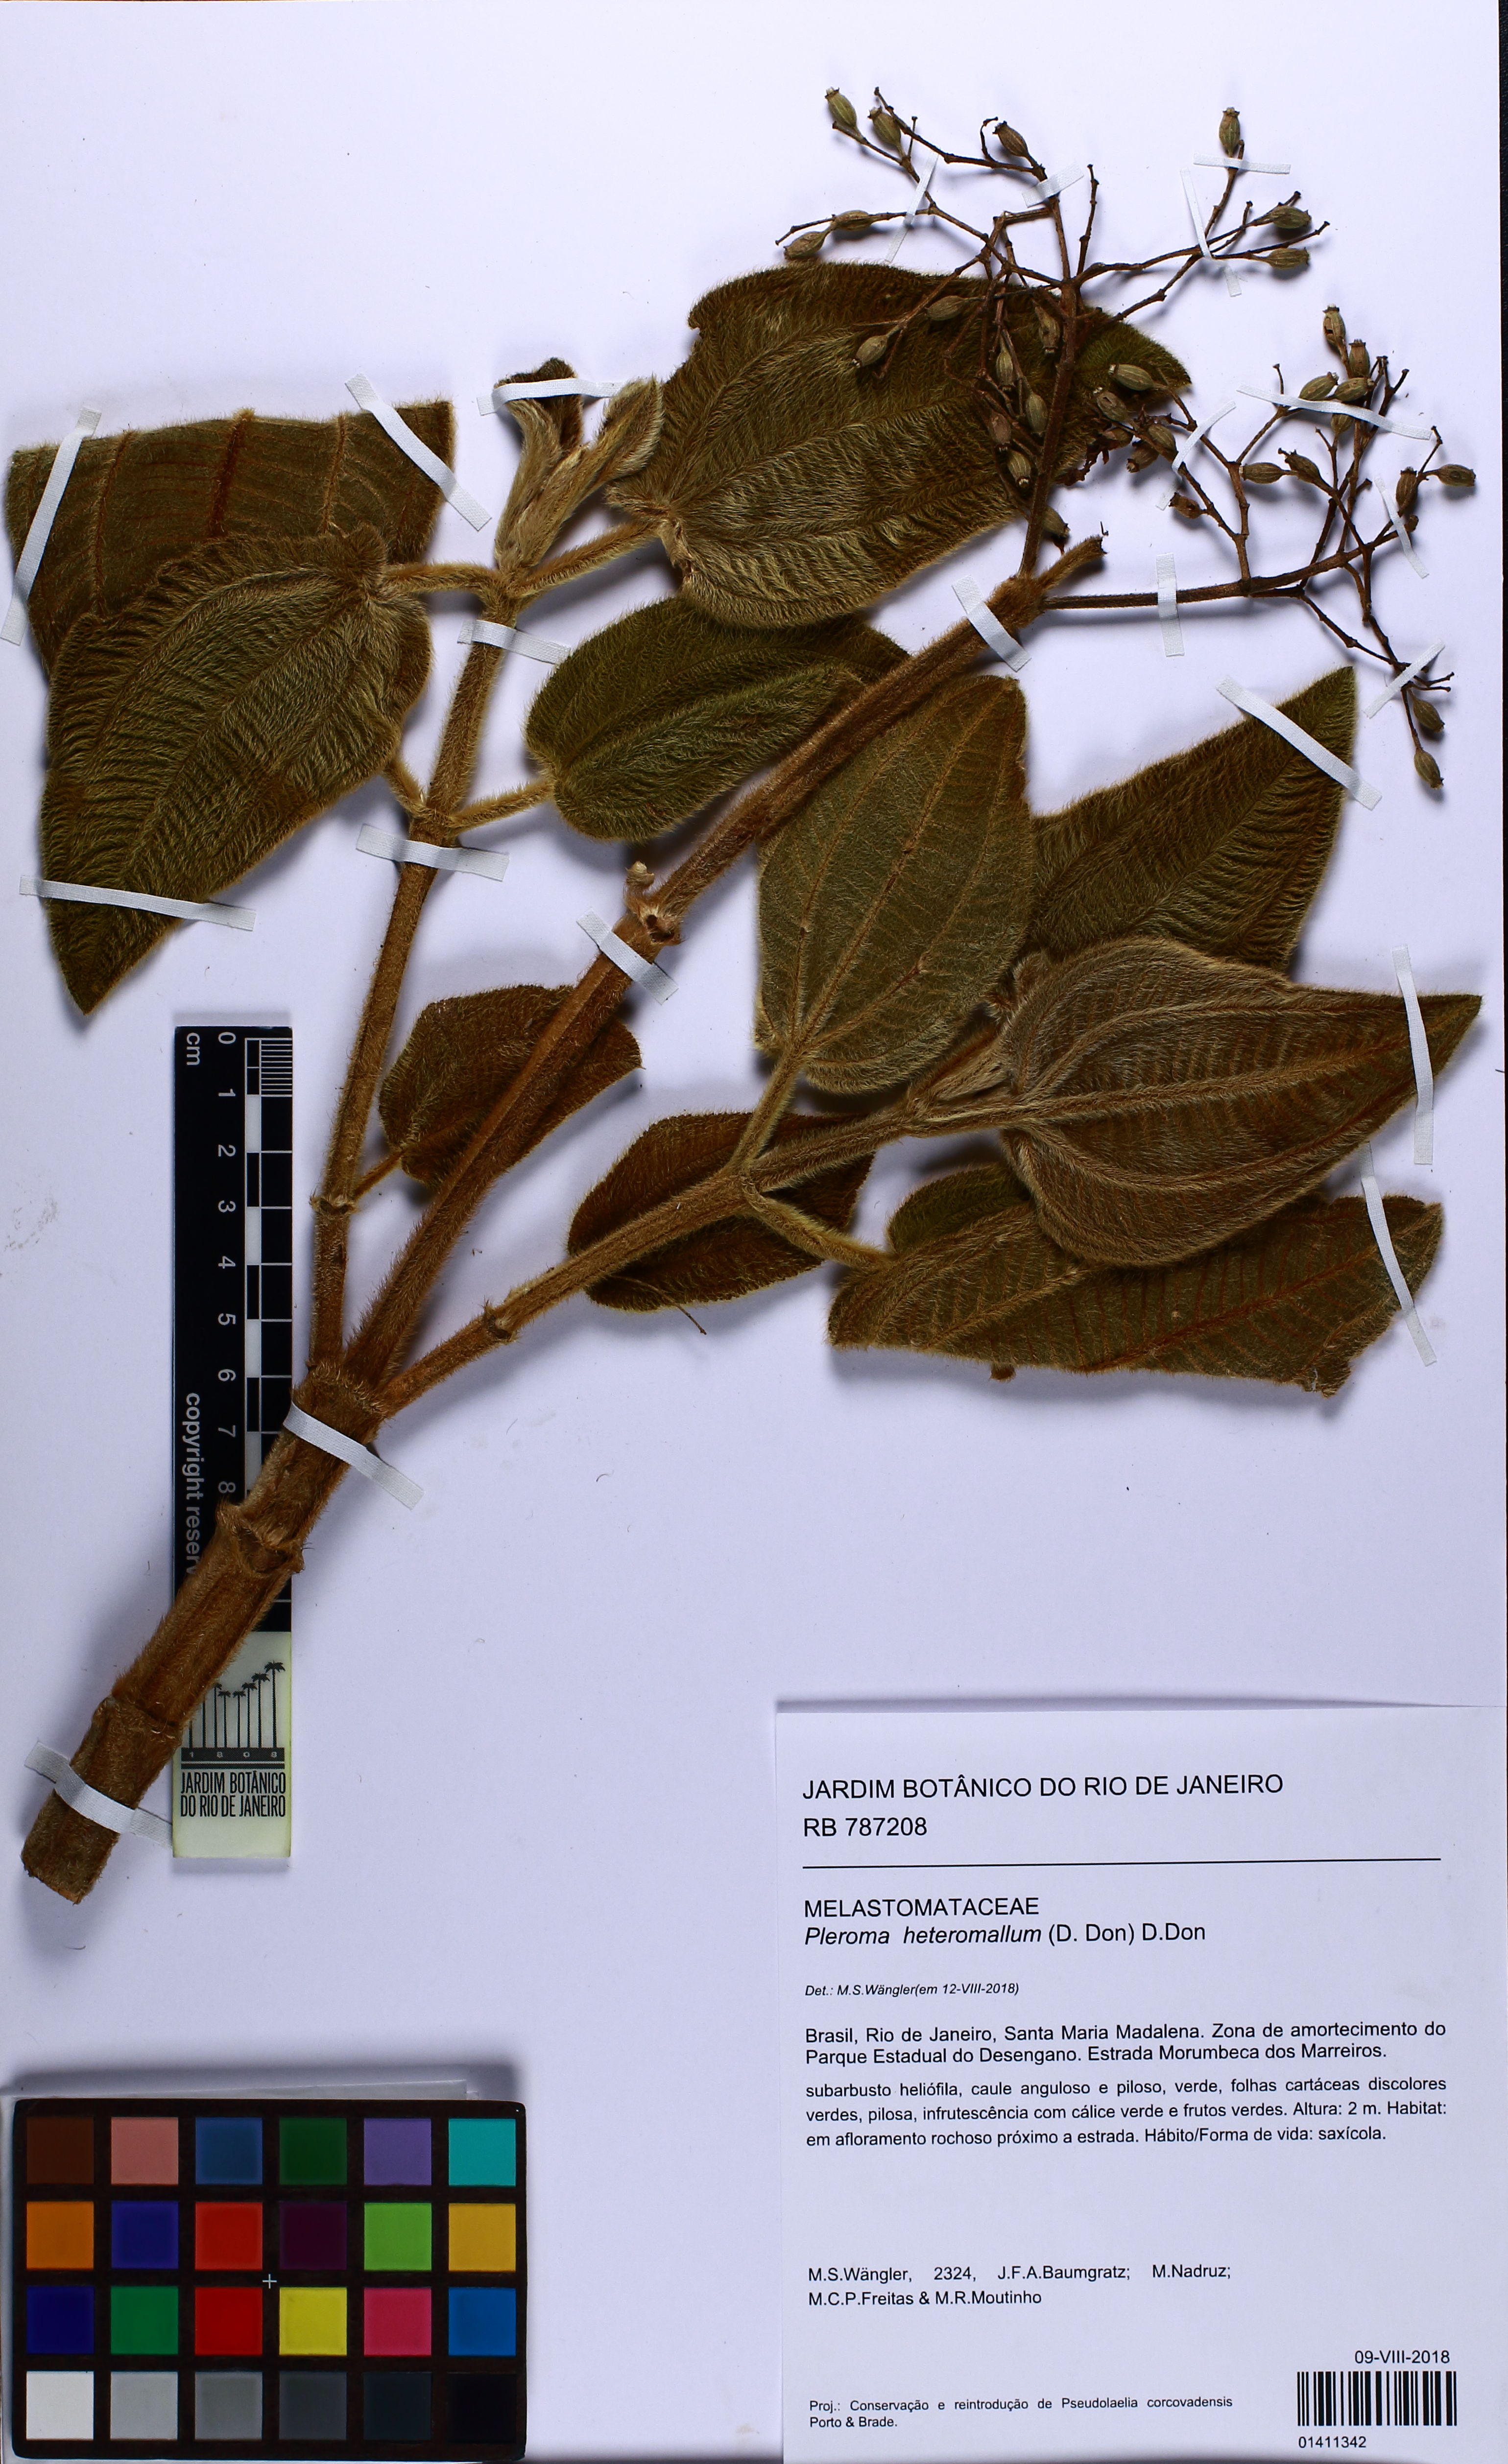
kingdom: Plantae
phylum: Tracheophyta
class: Magnoliopsida
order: Myrtales
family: Melastomataceae
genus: Pleroma
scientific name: Pleroma heteromallum
